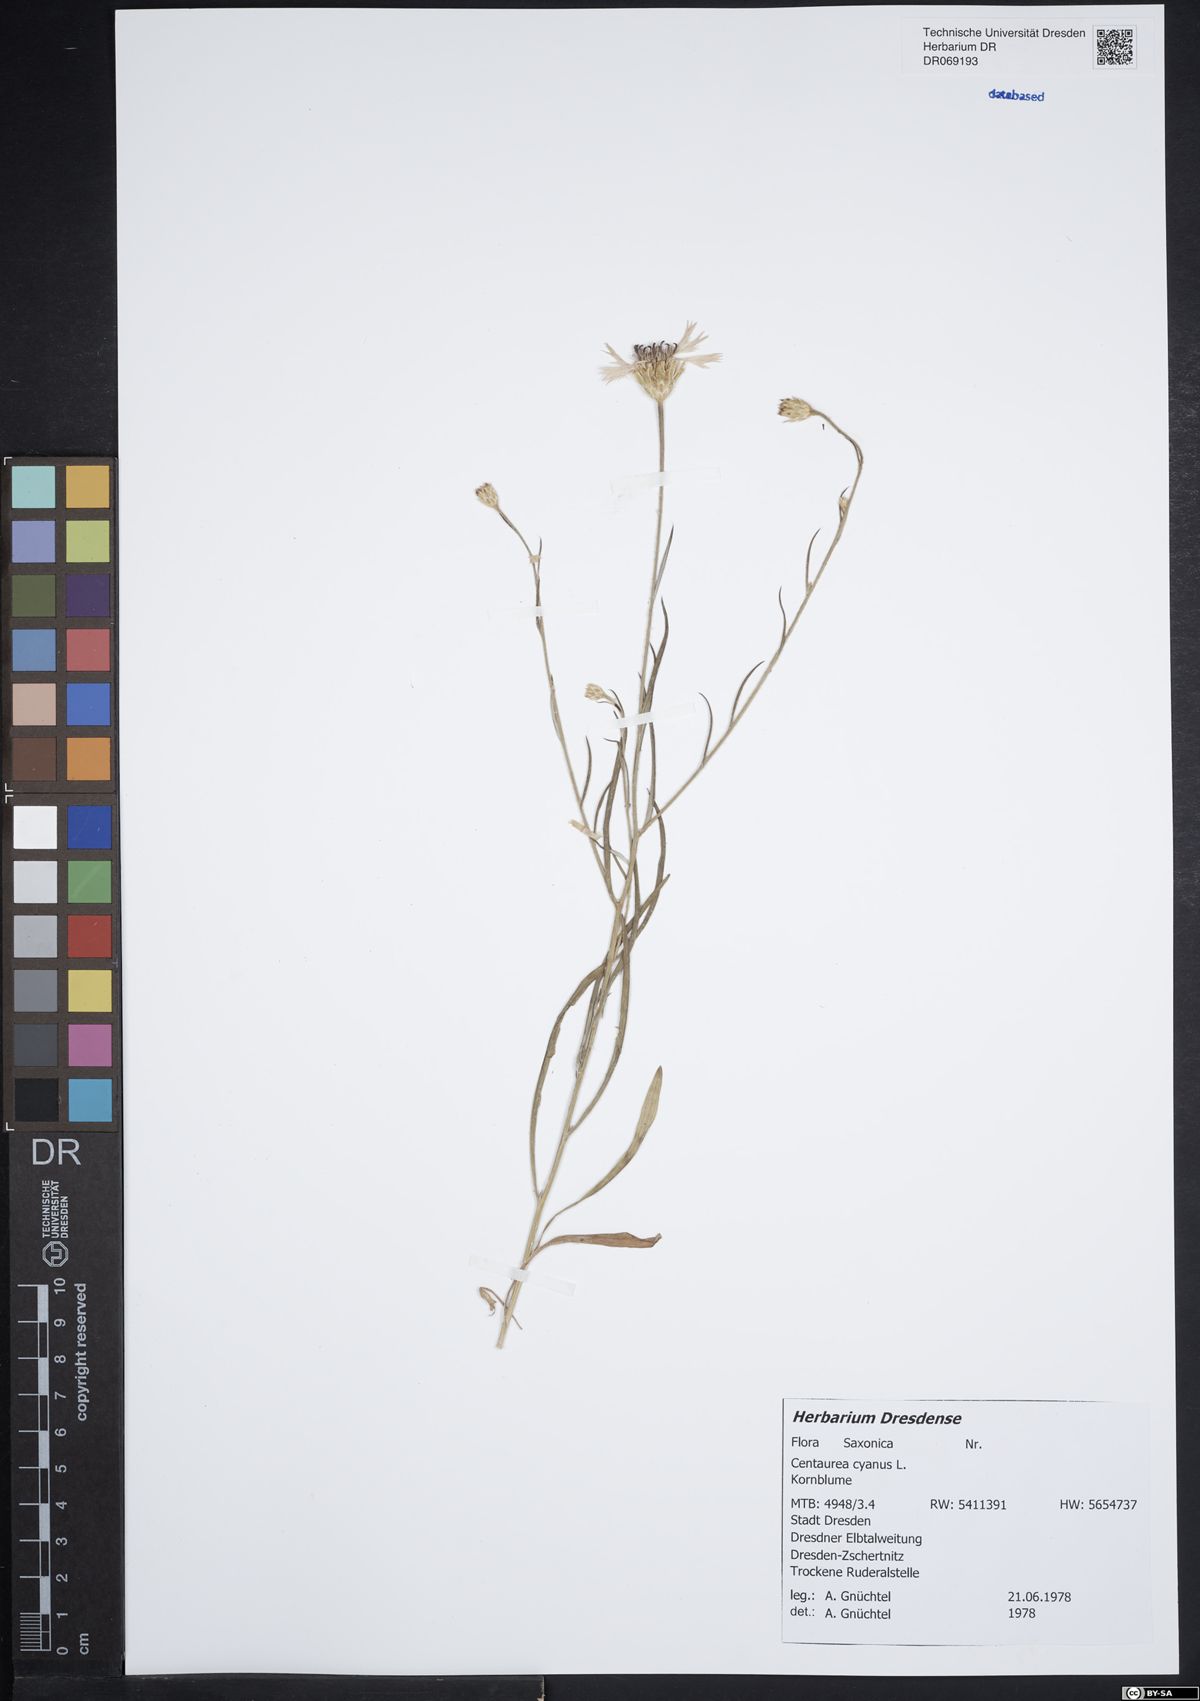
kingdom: Plantae
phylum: Tracheophyta
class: Magnoliopsida
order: Asterales
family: Asteraceae
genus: Centaurea
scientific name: Centaurea cyanus
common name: Cornflower
